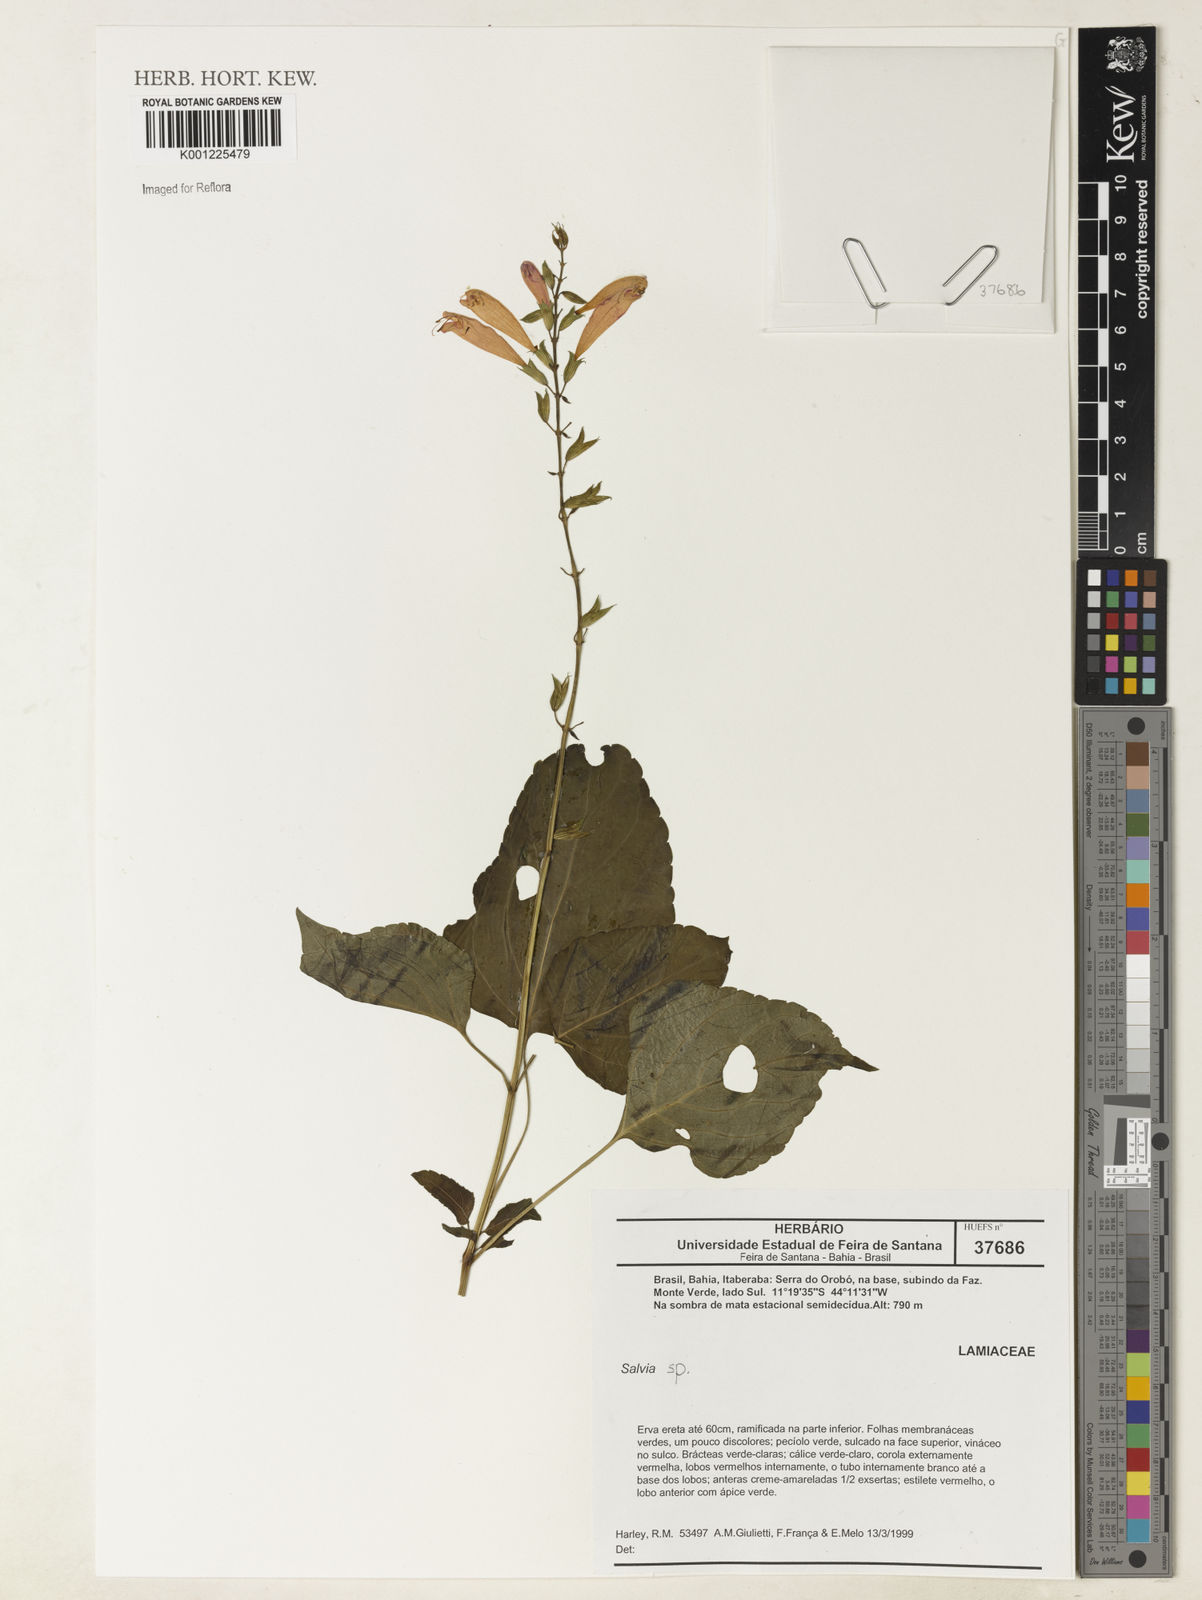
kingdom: Plantae
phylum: Tracheophyta
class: Magnoliopsida
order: Lamiales
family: Lamiaceae
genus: Salvia
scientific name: Salvia
